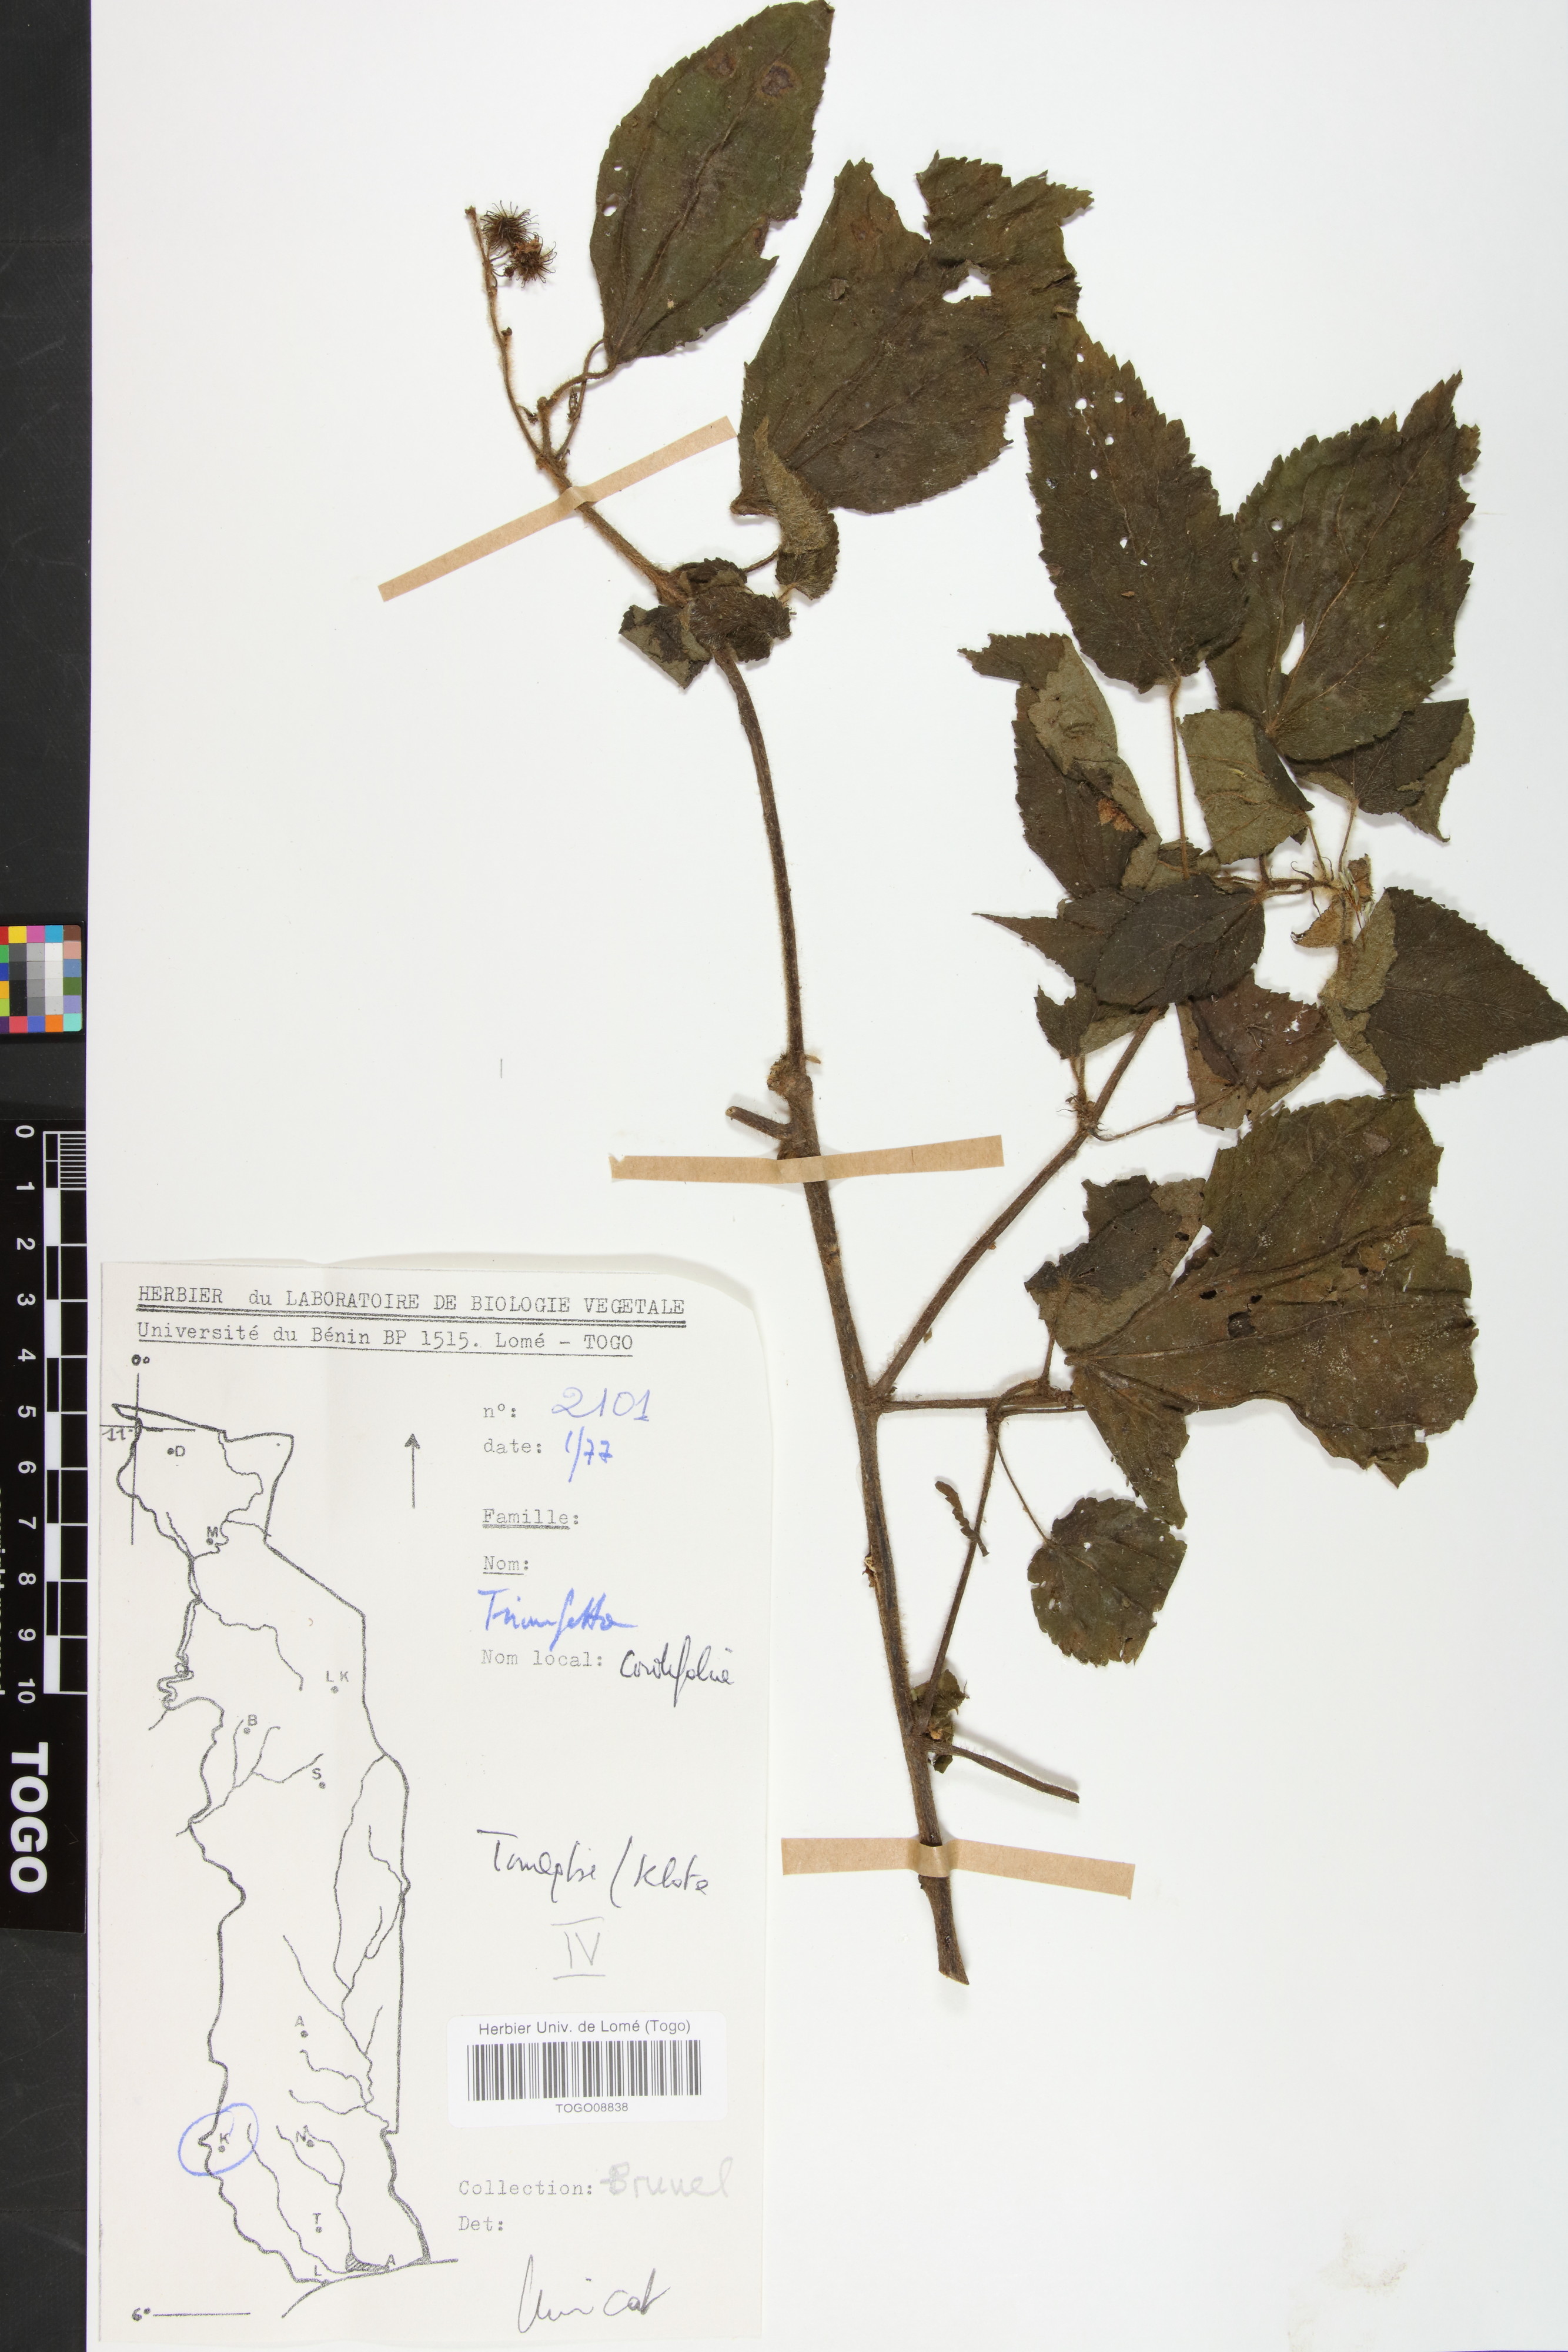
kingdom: Plantae
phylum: Tracheophyta
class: Magnoliopsida
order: Malvales
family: Malvaceae
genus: Triumfetta
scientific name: Triumfetta cordifolia
